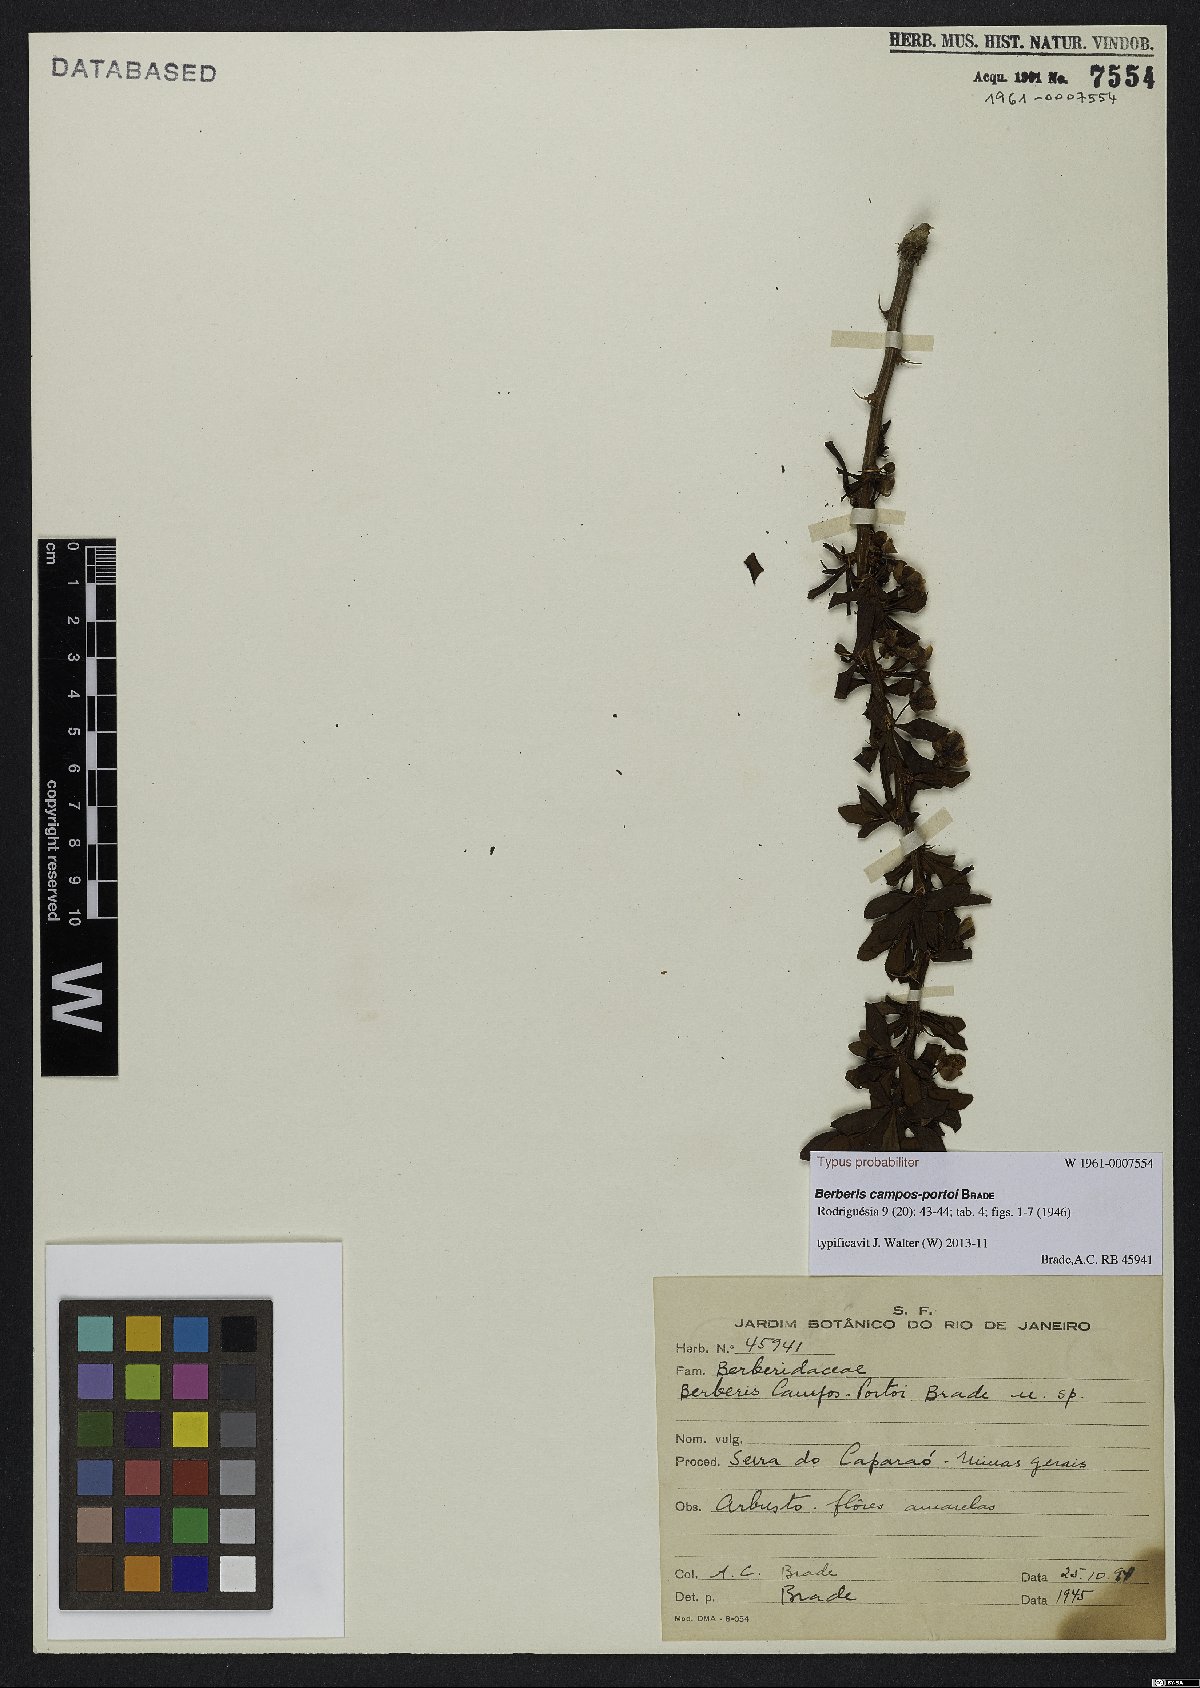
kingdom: Plantae
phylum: Tracheophyta
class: Magnoliopsida
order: Ranunculales
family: Berberidaceae
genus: Berberis
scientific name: Berberis campos-portoi
